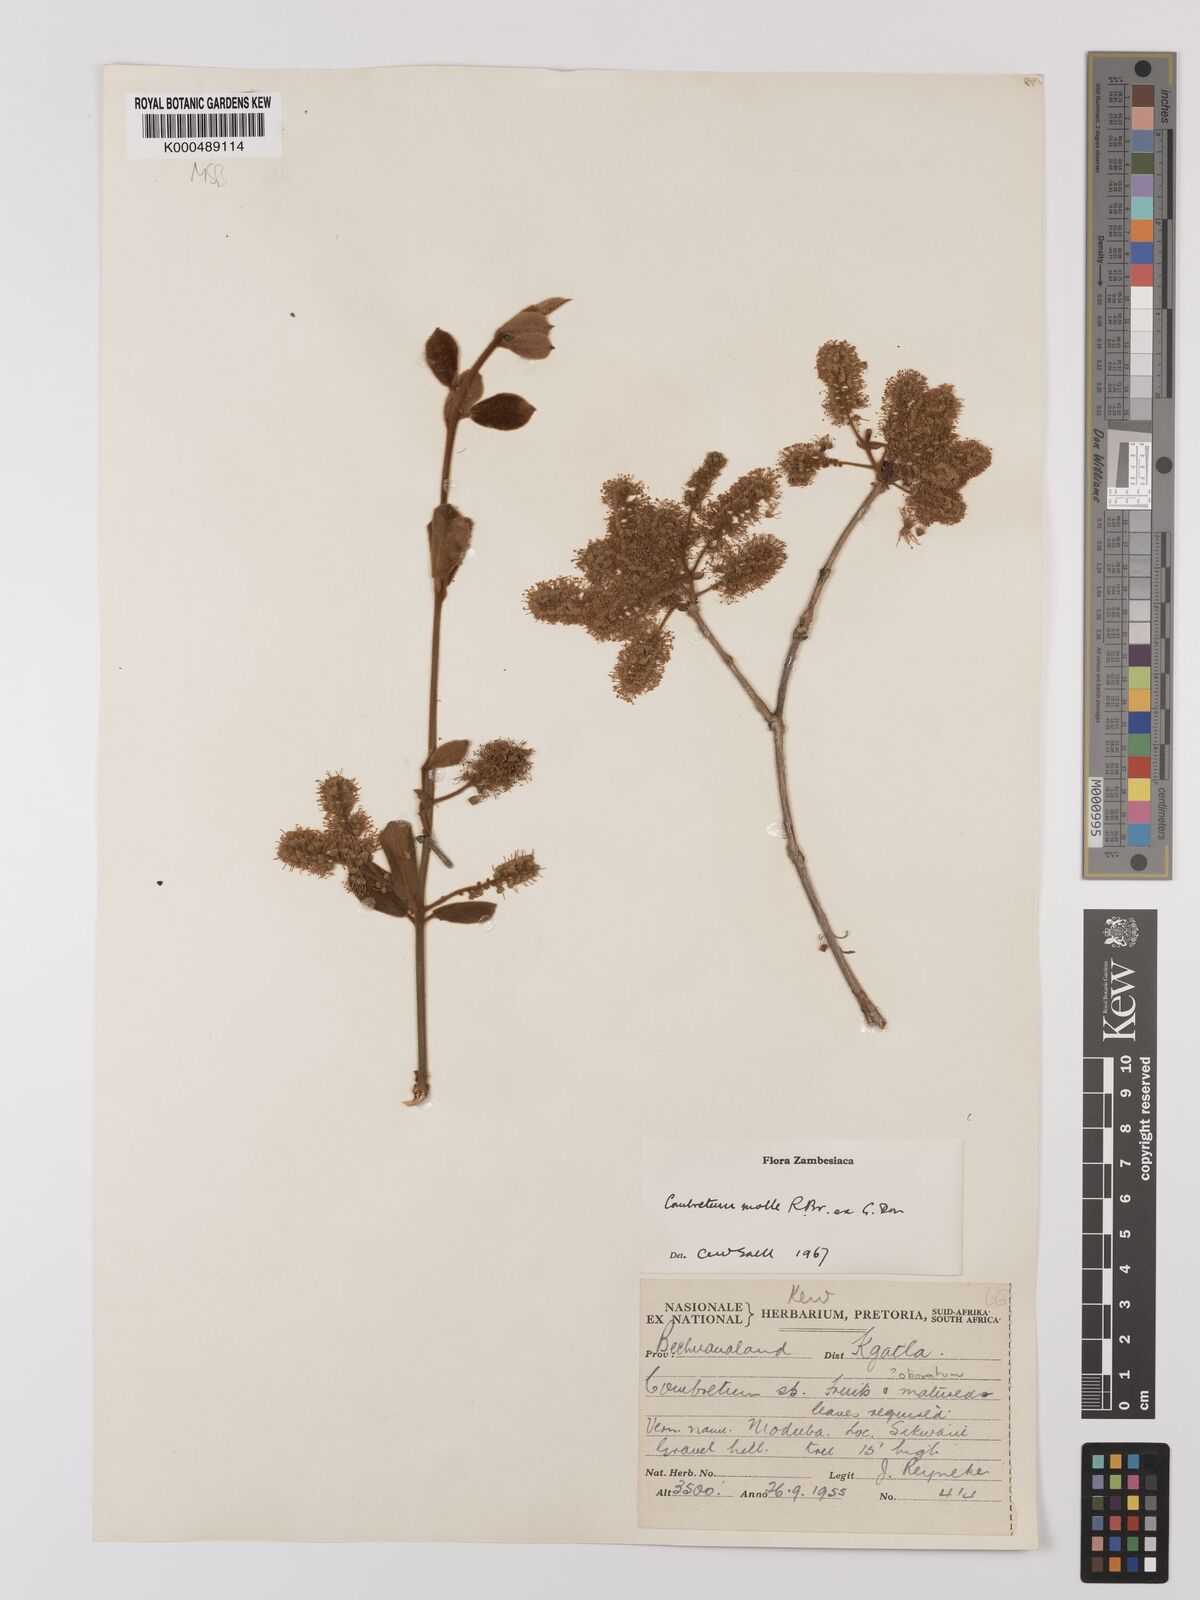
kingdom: Plantae
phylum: Tracheophyta
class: Magnoliopsida
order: Myrtales
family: Combretaceae
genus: Combretum
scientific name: Combretum molle
